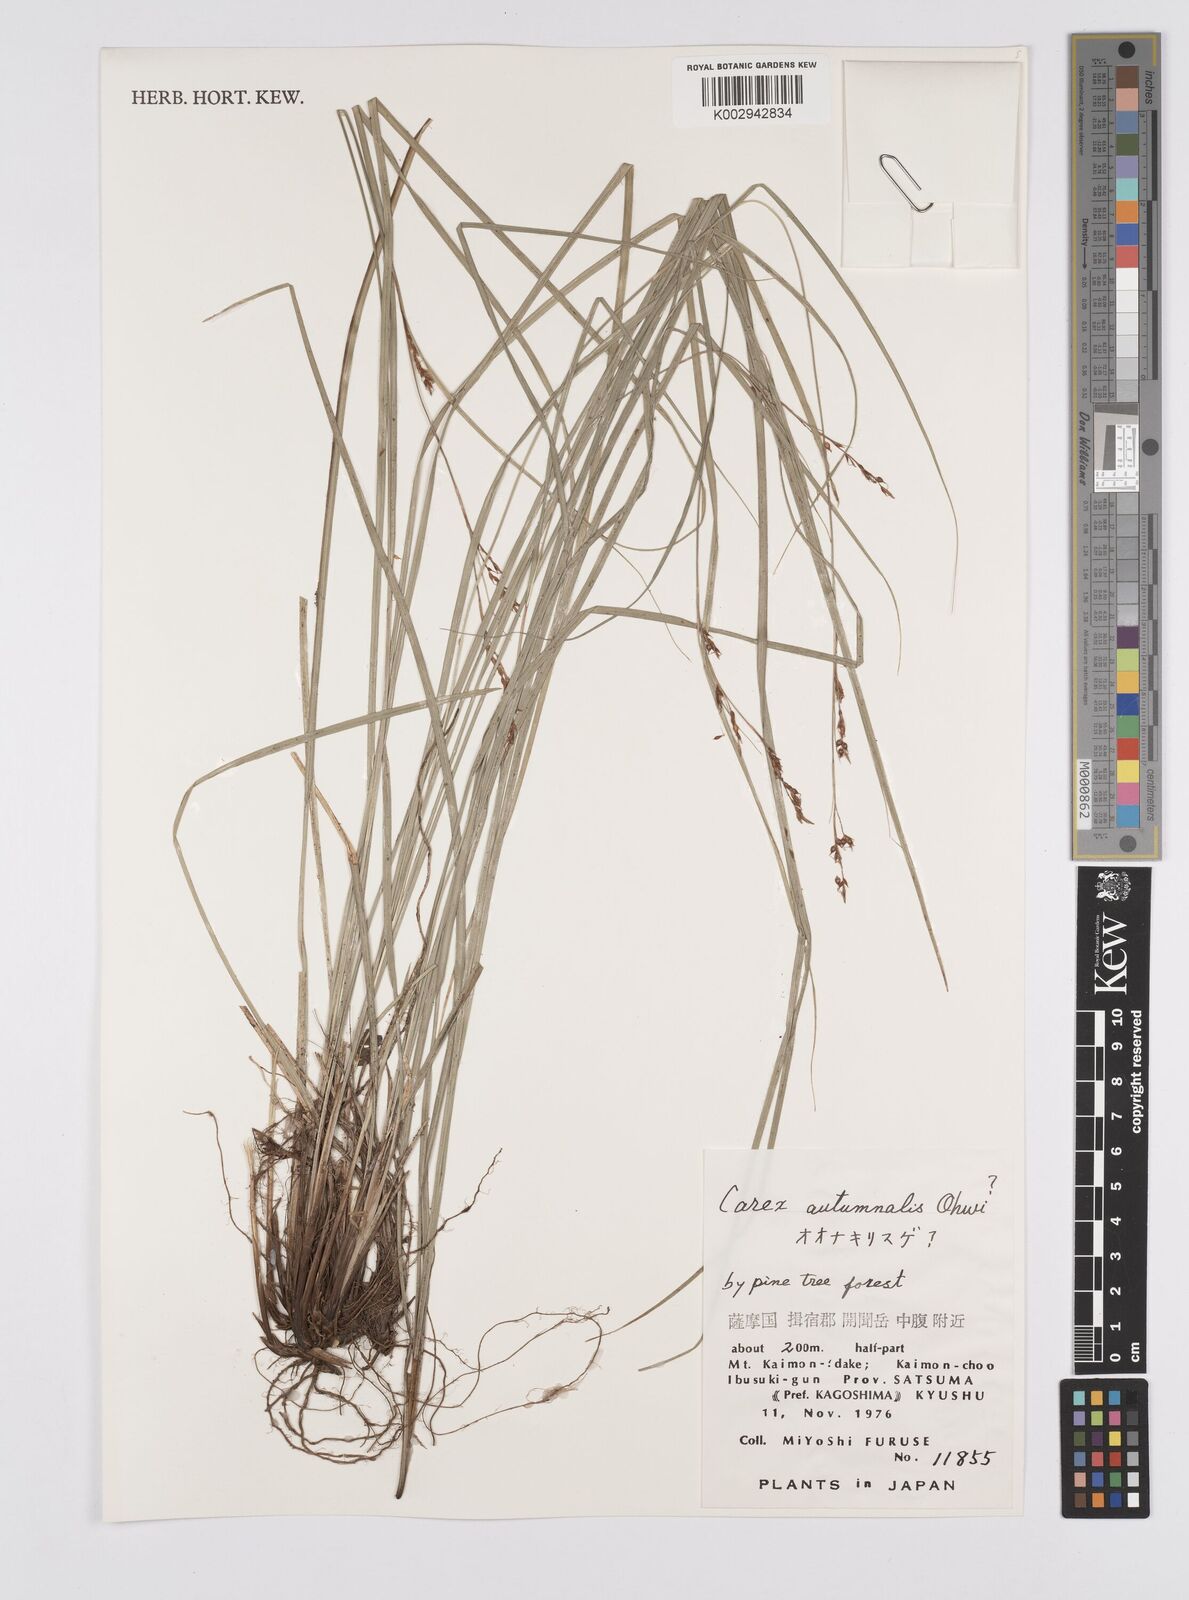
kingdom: Plantae
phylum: Tracheophyta
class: Liliopsida
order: Poales
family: Cyperaceae
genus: Carex
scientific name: Carex autumnalis
